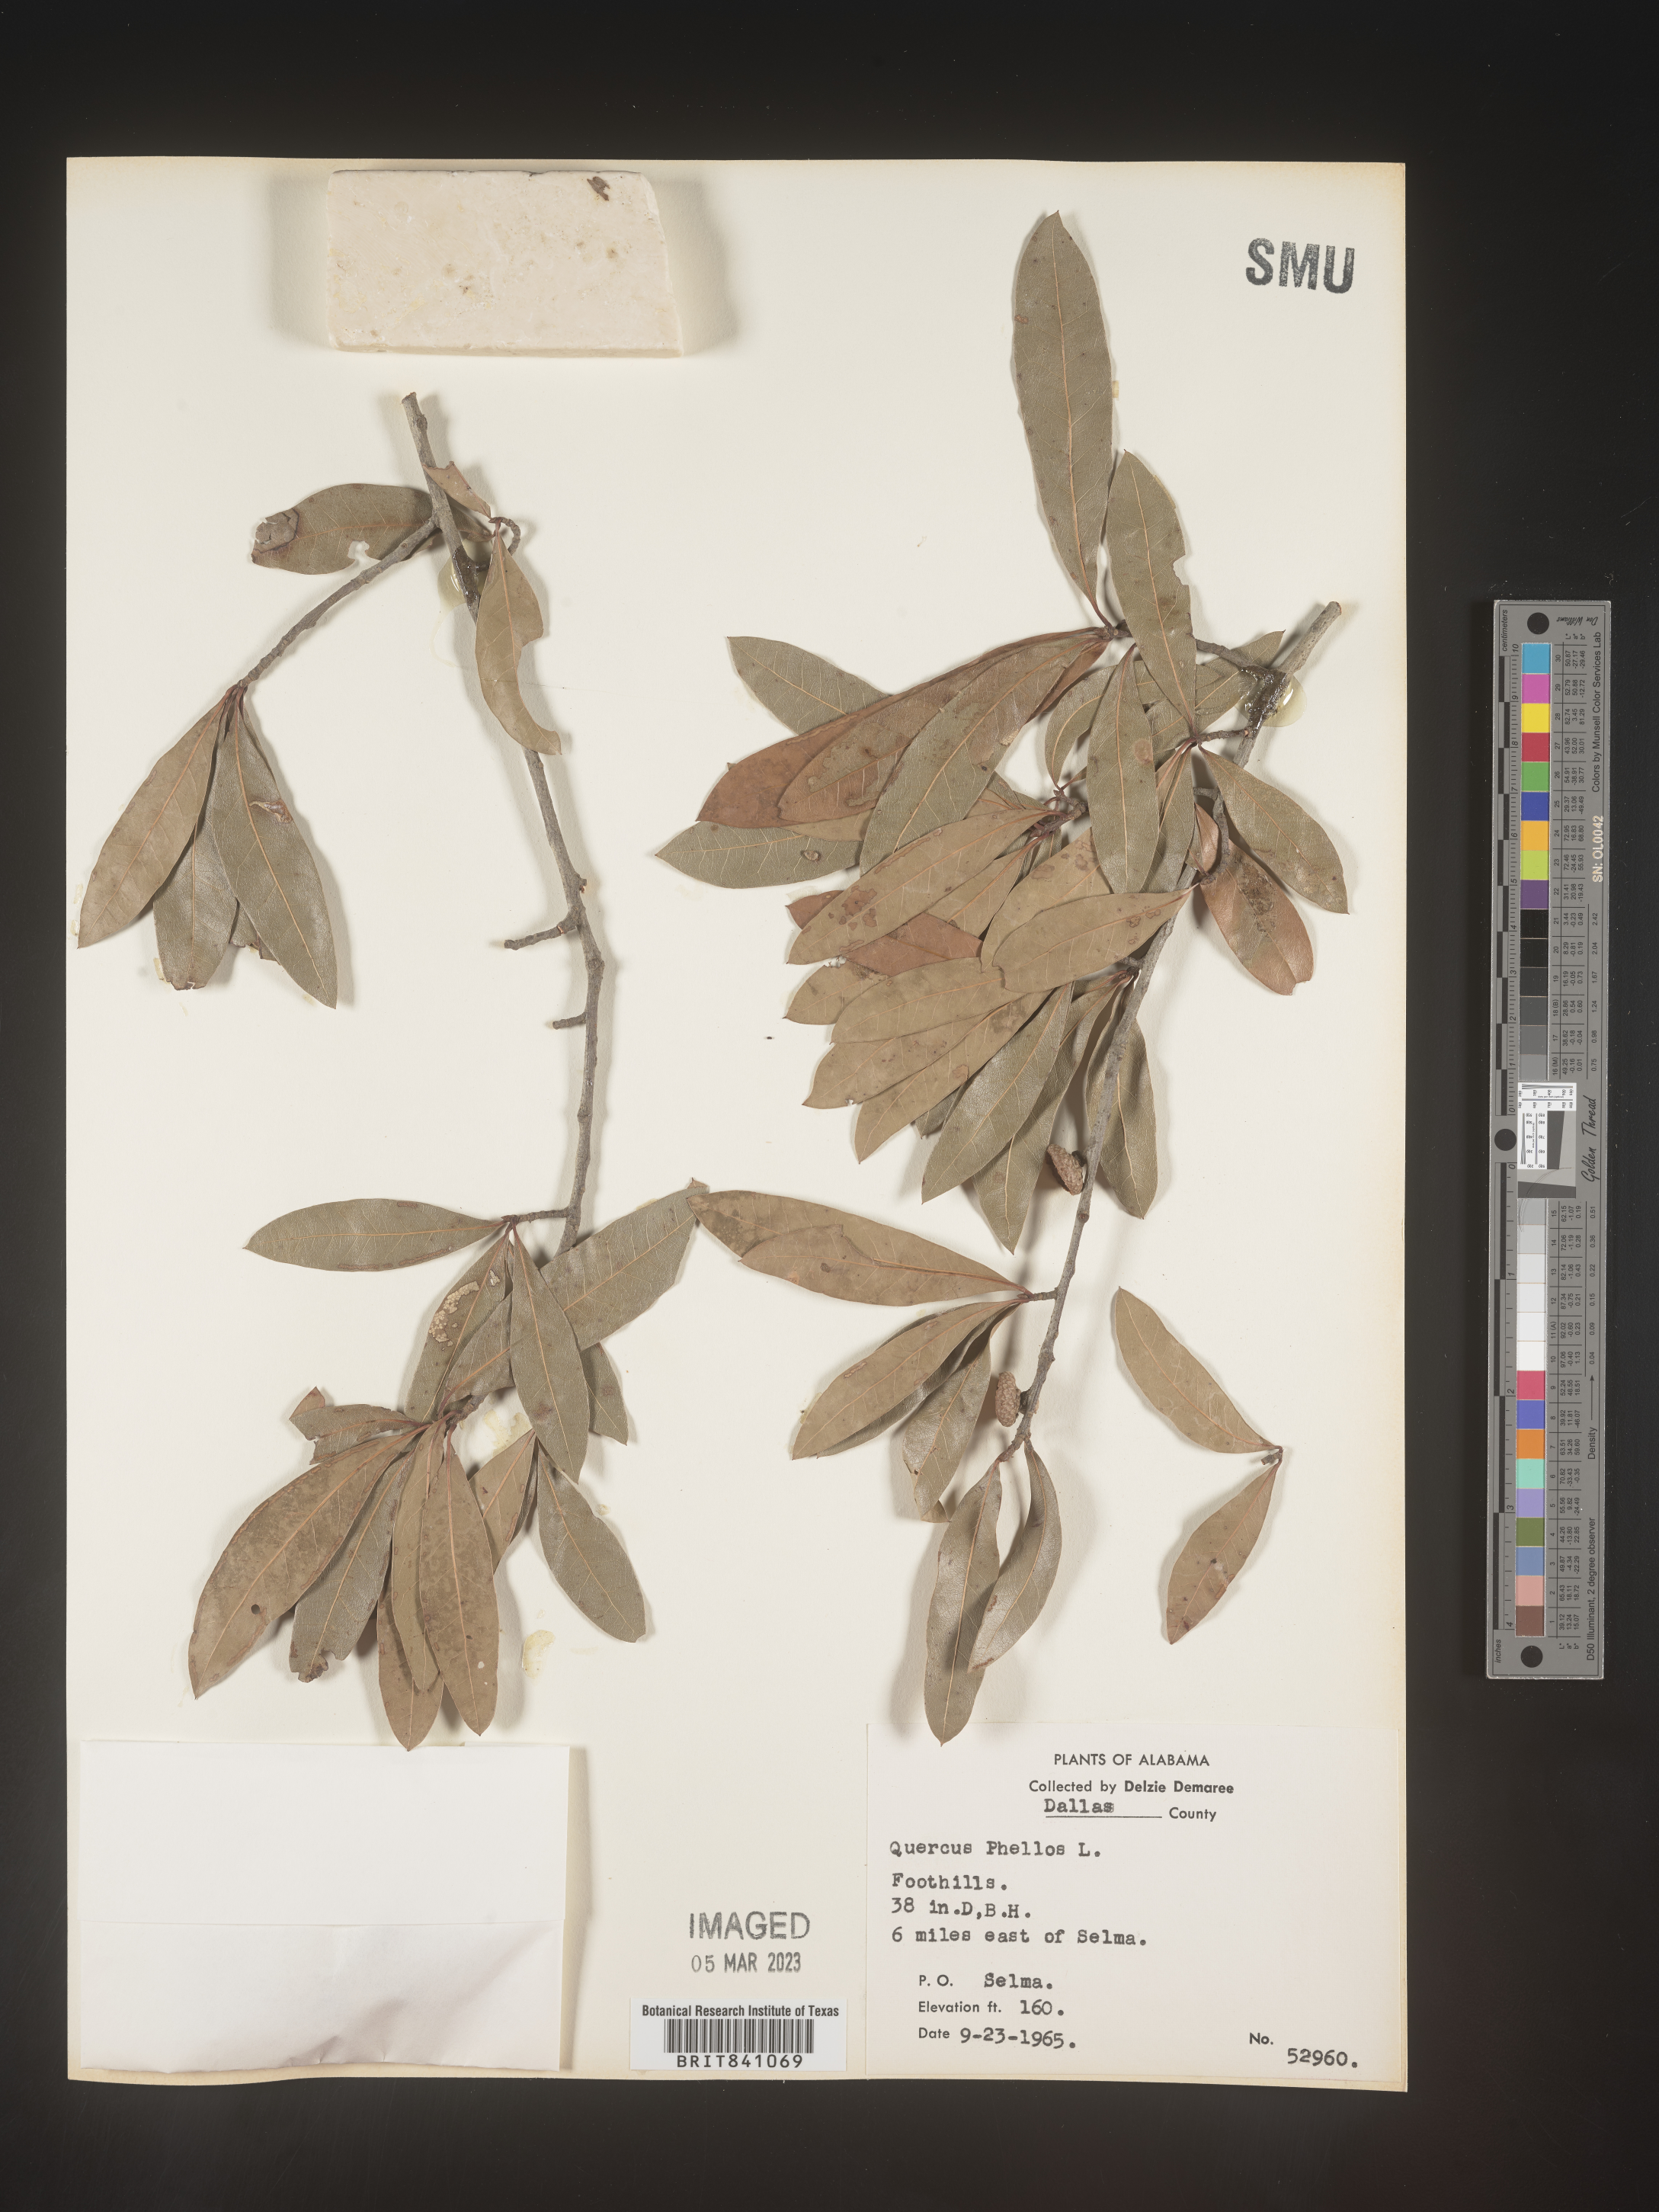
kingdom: Plantae
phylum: Tracheophyta
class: Magnoliopsida
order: Fagales
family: Fagaceae
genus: Quercus
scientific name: Quercus phellos
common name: Willow oak
